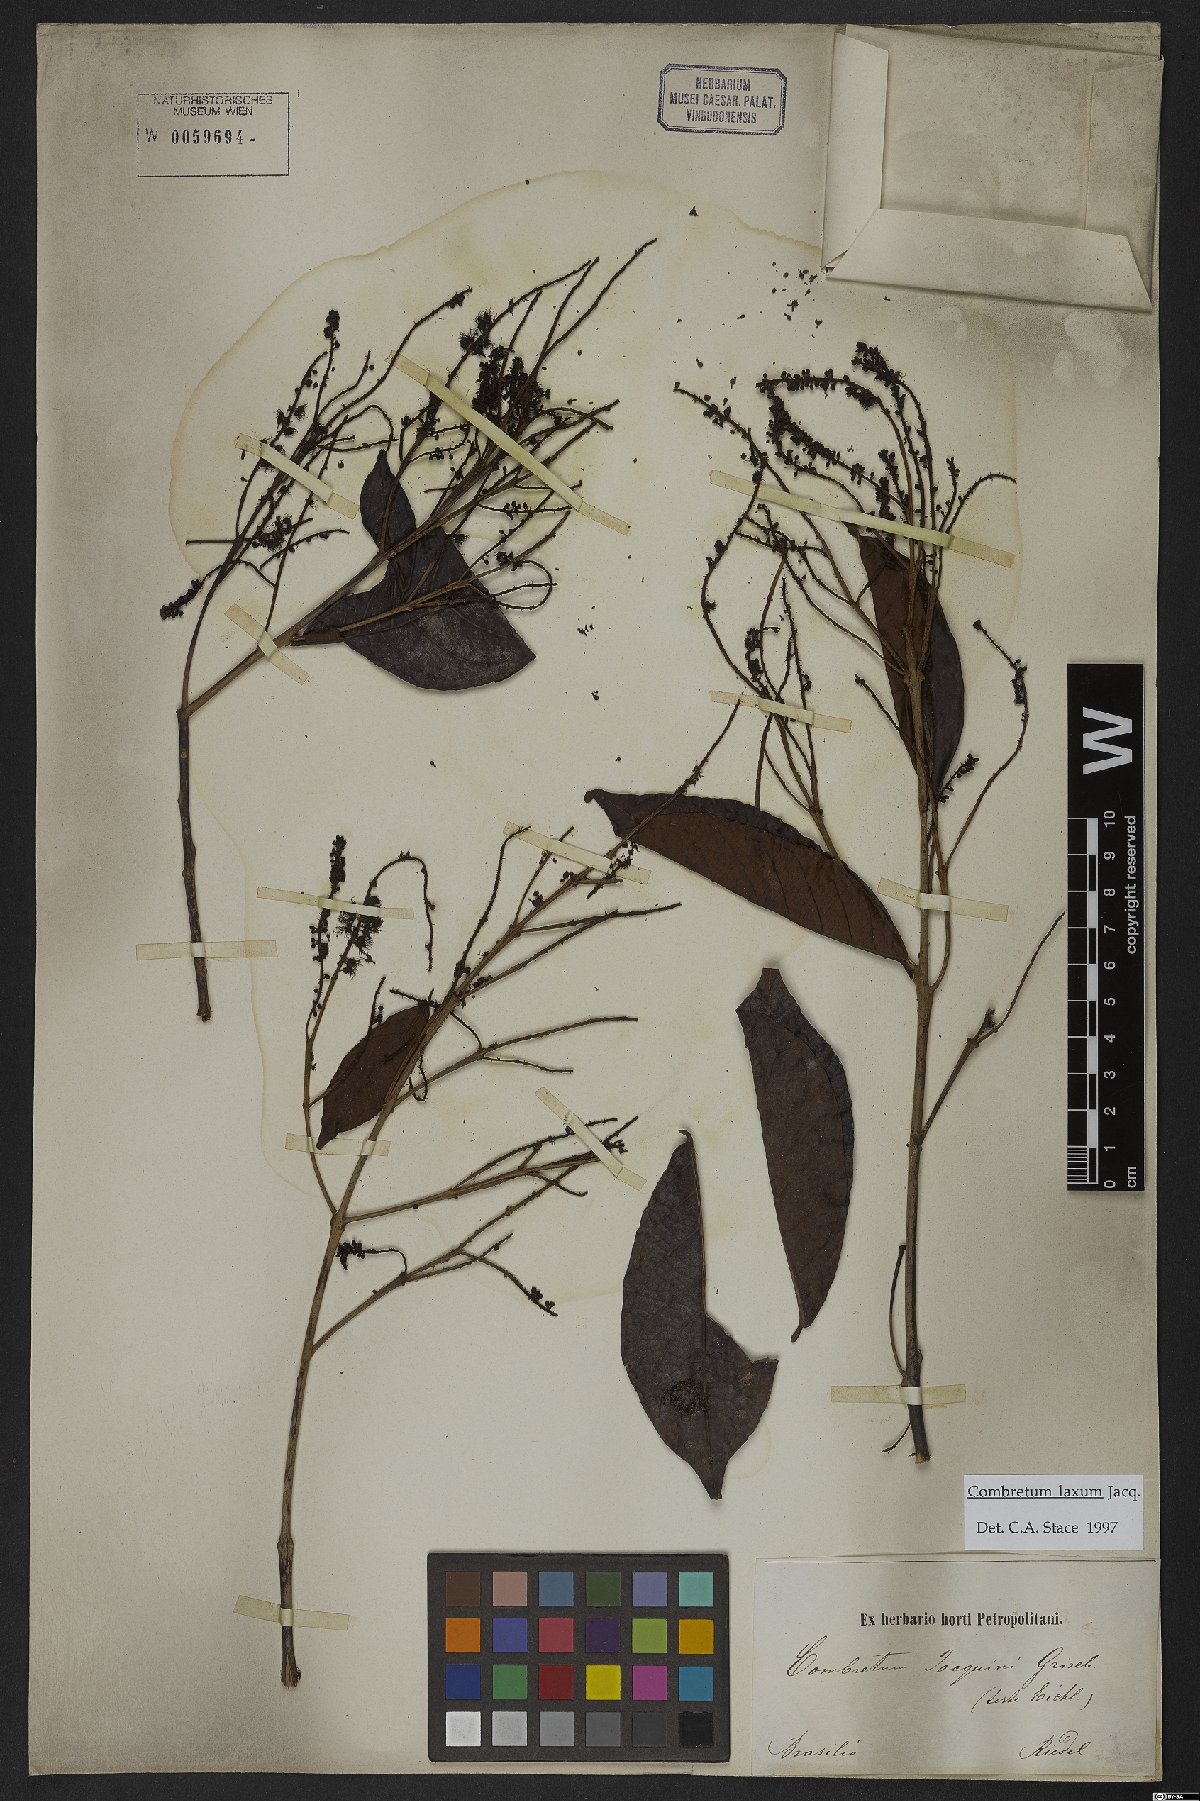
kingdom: Plantae
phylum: Tracheophyta
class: Magnoliopsida
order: Myrtales
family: Combretaceae
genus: Combretum
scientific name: Combretum laxum
